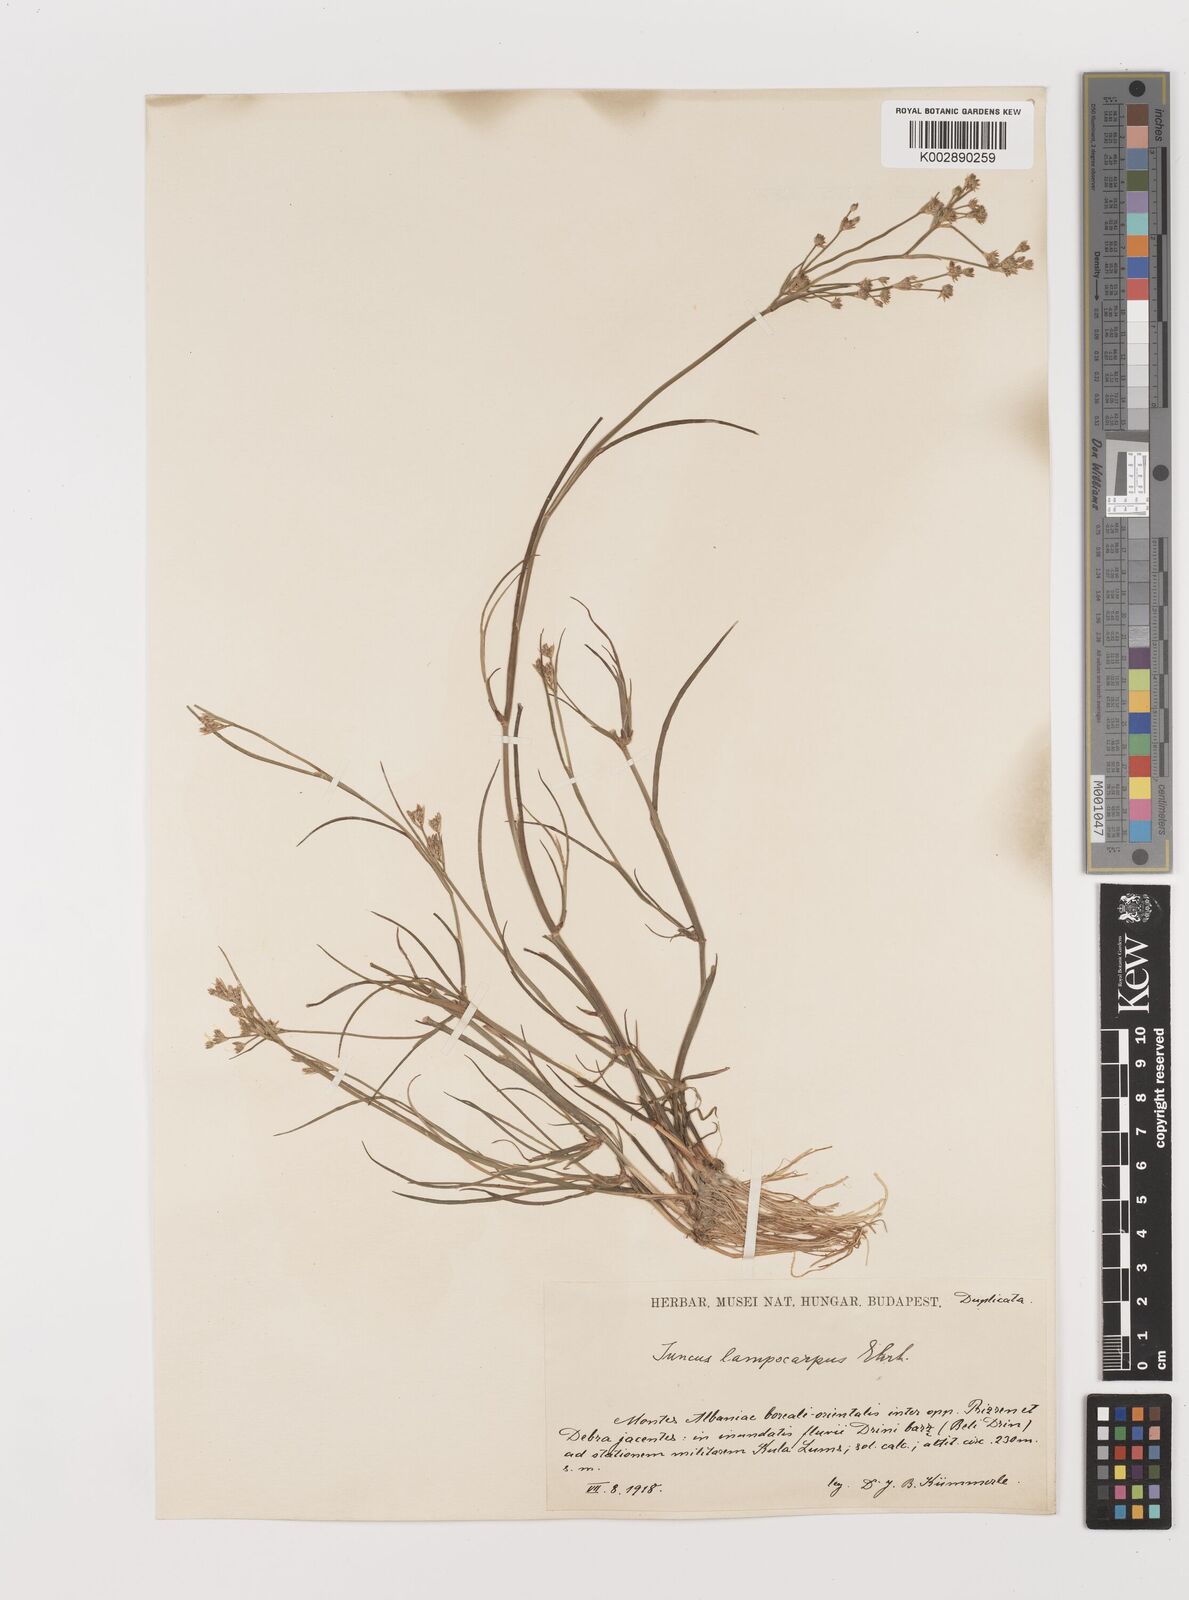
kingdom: Plantae
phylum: Tracheophyta
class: Liliopsida
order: Poales
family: Juncaceae
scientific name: Juncaceae
